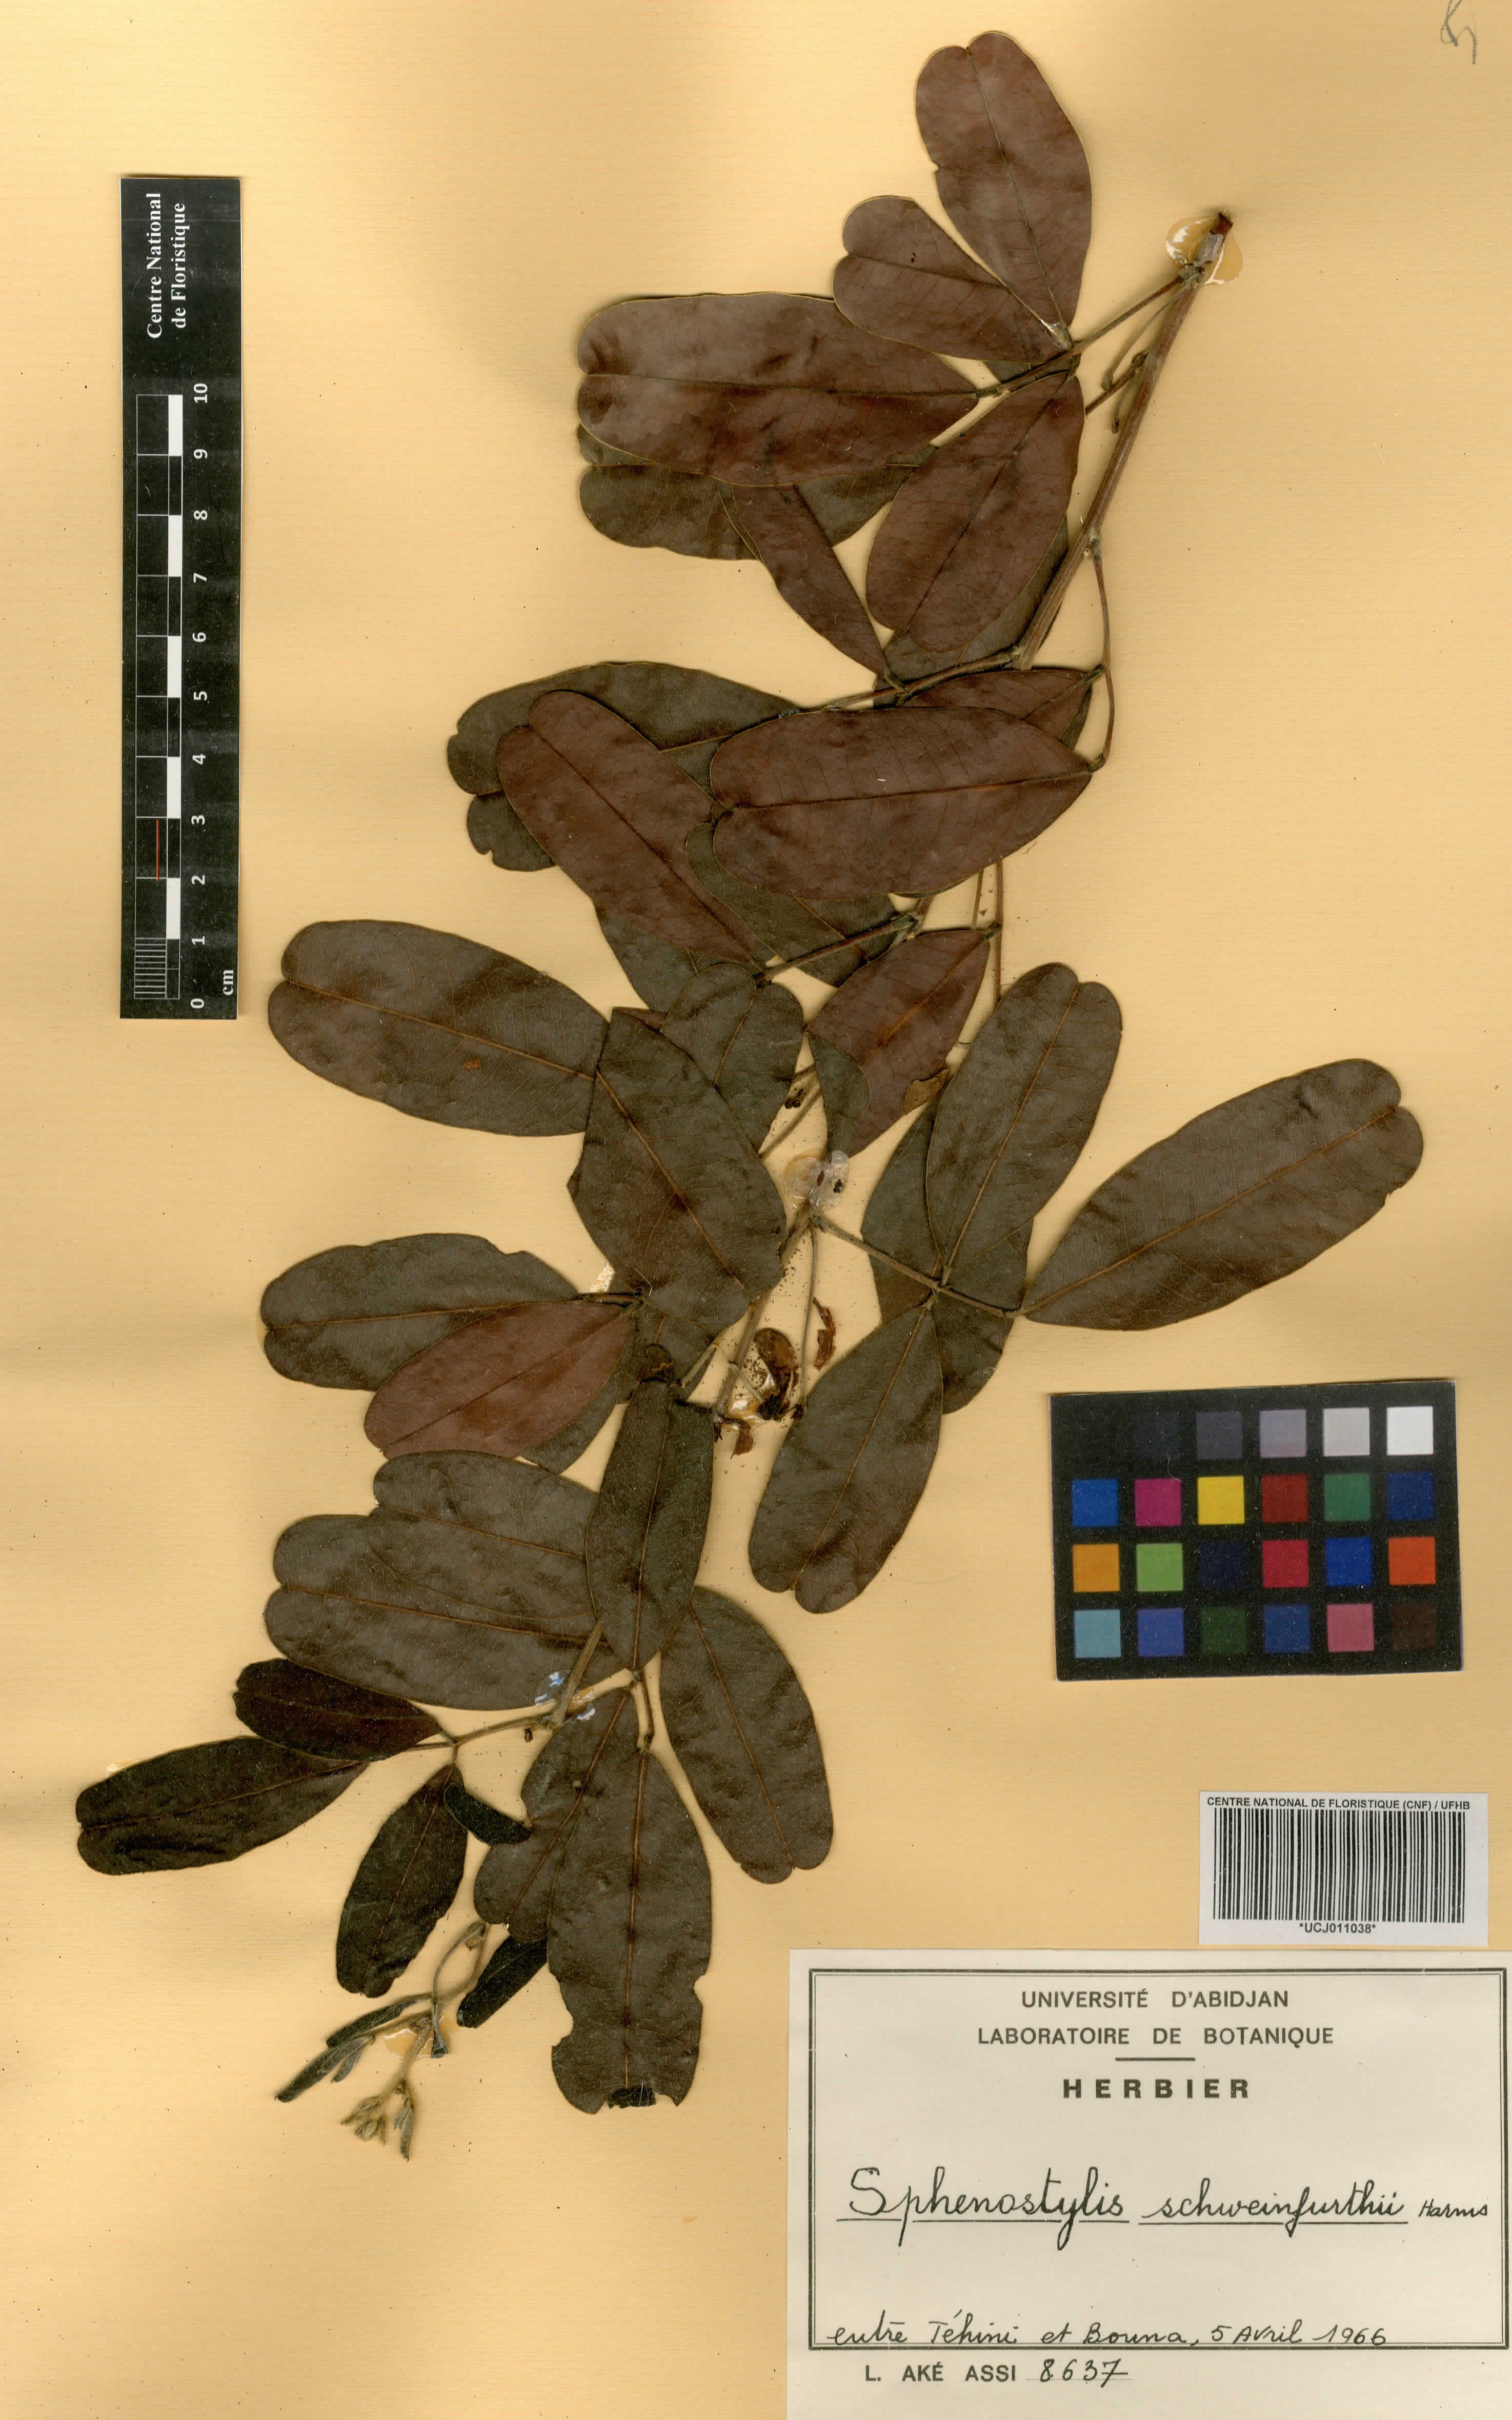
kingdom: Plantae
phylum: Tracheophyta
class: Magnoliopsida
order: Fabales
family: Fabaceae
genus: Sphenostylis
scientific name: Sphenostylis schweinfurthii
